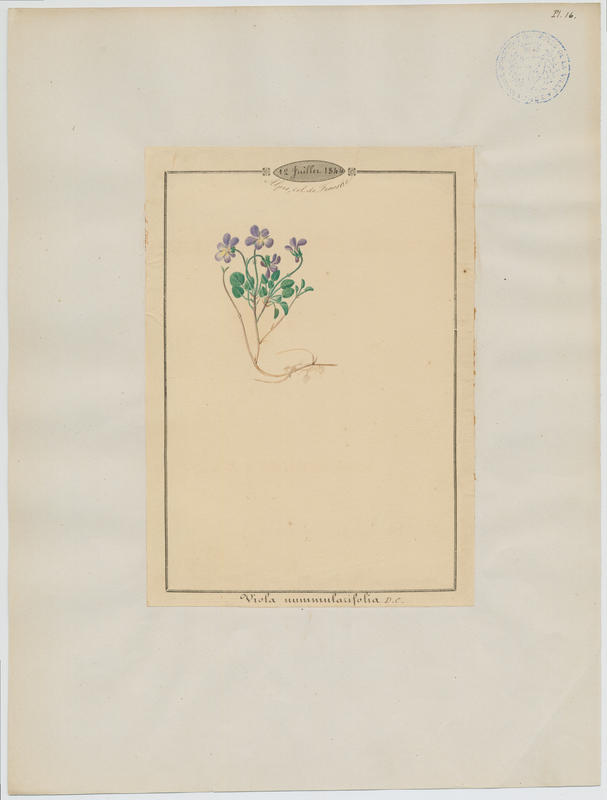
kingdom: Plantae
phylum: Tracheophyta
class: Magnoliopsida
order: Malpighiales
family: Violaceae
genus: Viola
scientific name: Viola nummulariifolia
